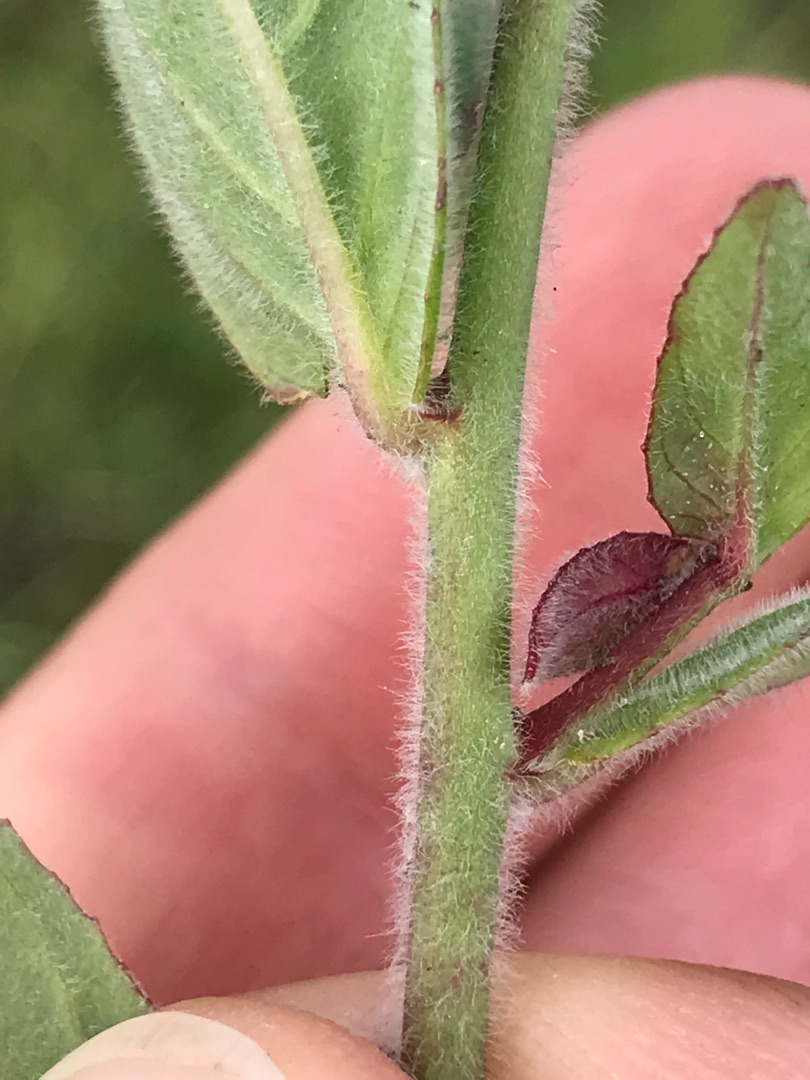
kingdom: Plantae
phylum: Tracheophyta
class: Magnoliopsida
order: Myrtales
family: Onagraceae
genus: Epilobium
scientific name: Epilobium parviflorum
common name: Dunet dueurt
